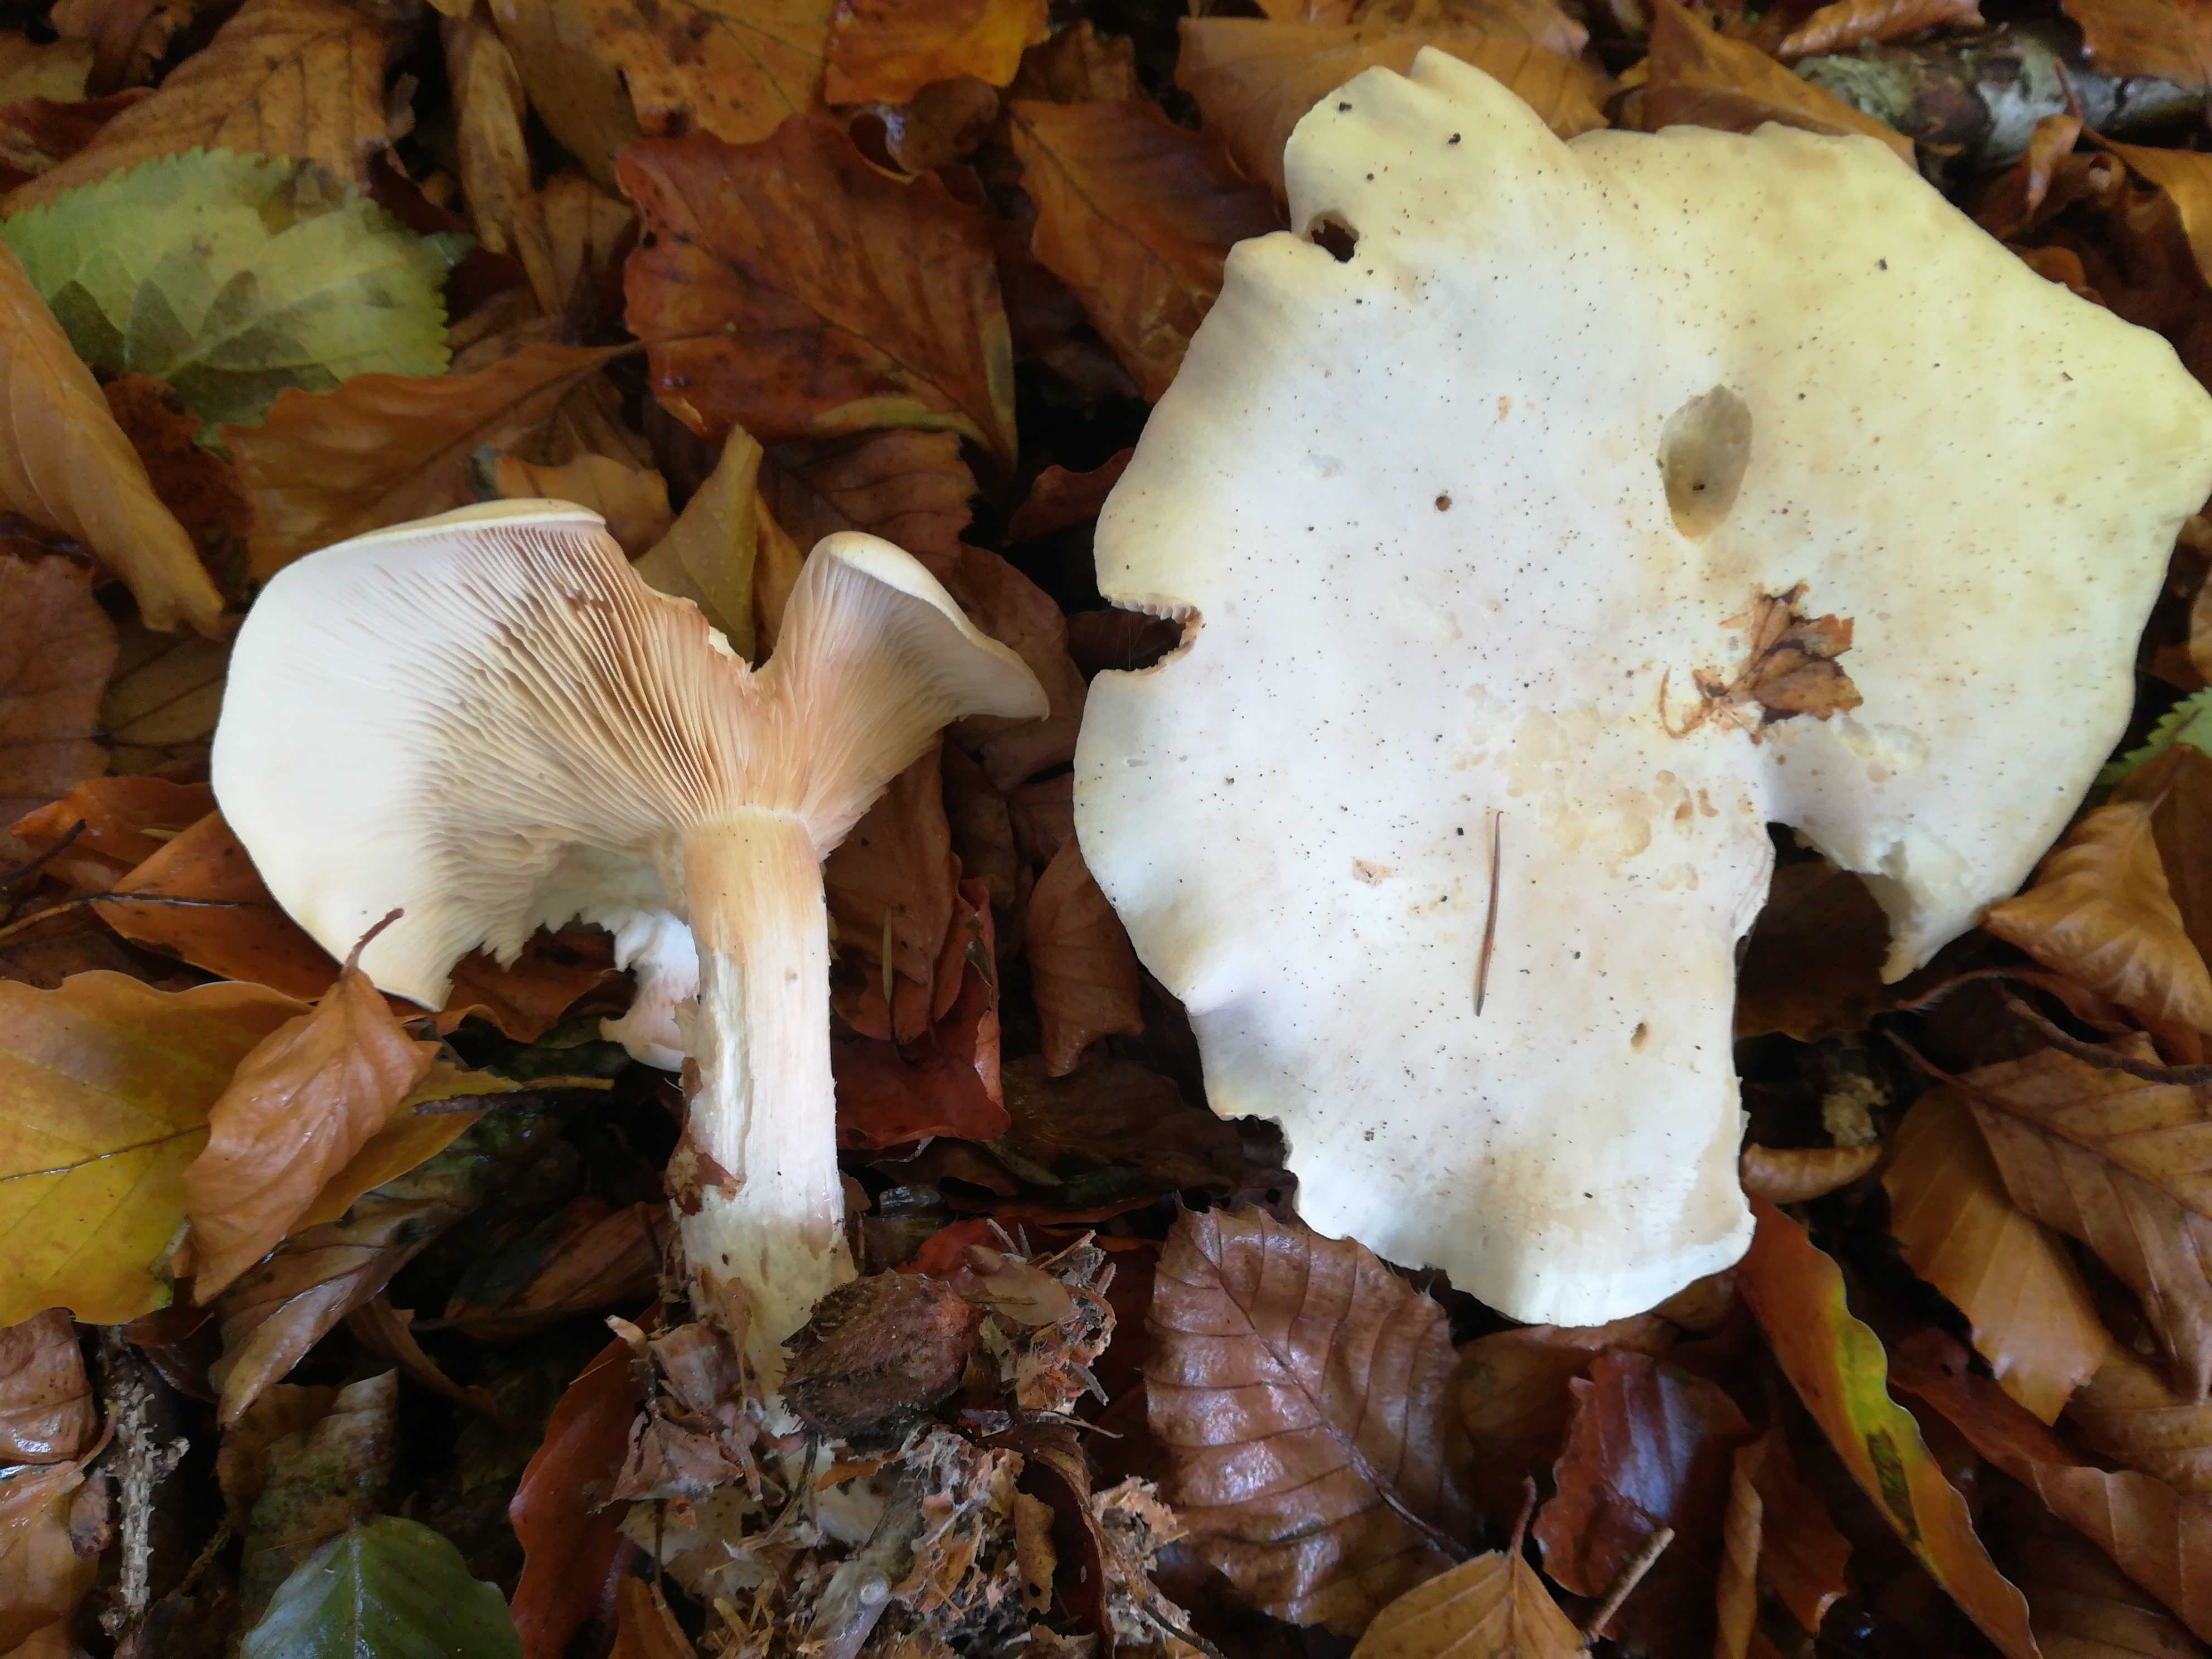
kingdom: Fungi
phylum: Basidiomycota
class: Agaricomycetes
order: Agaricales
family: Tricholomataceae
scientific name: Tricholomataceae
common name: ridderhatfamilien
